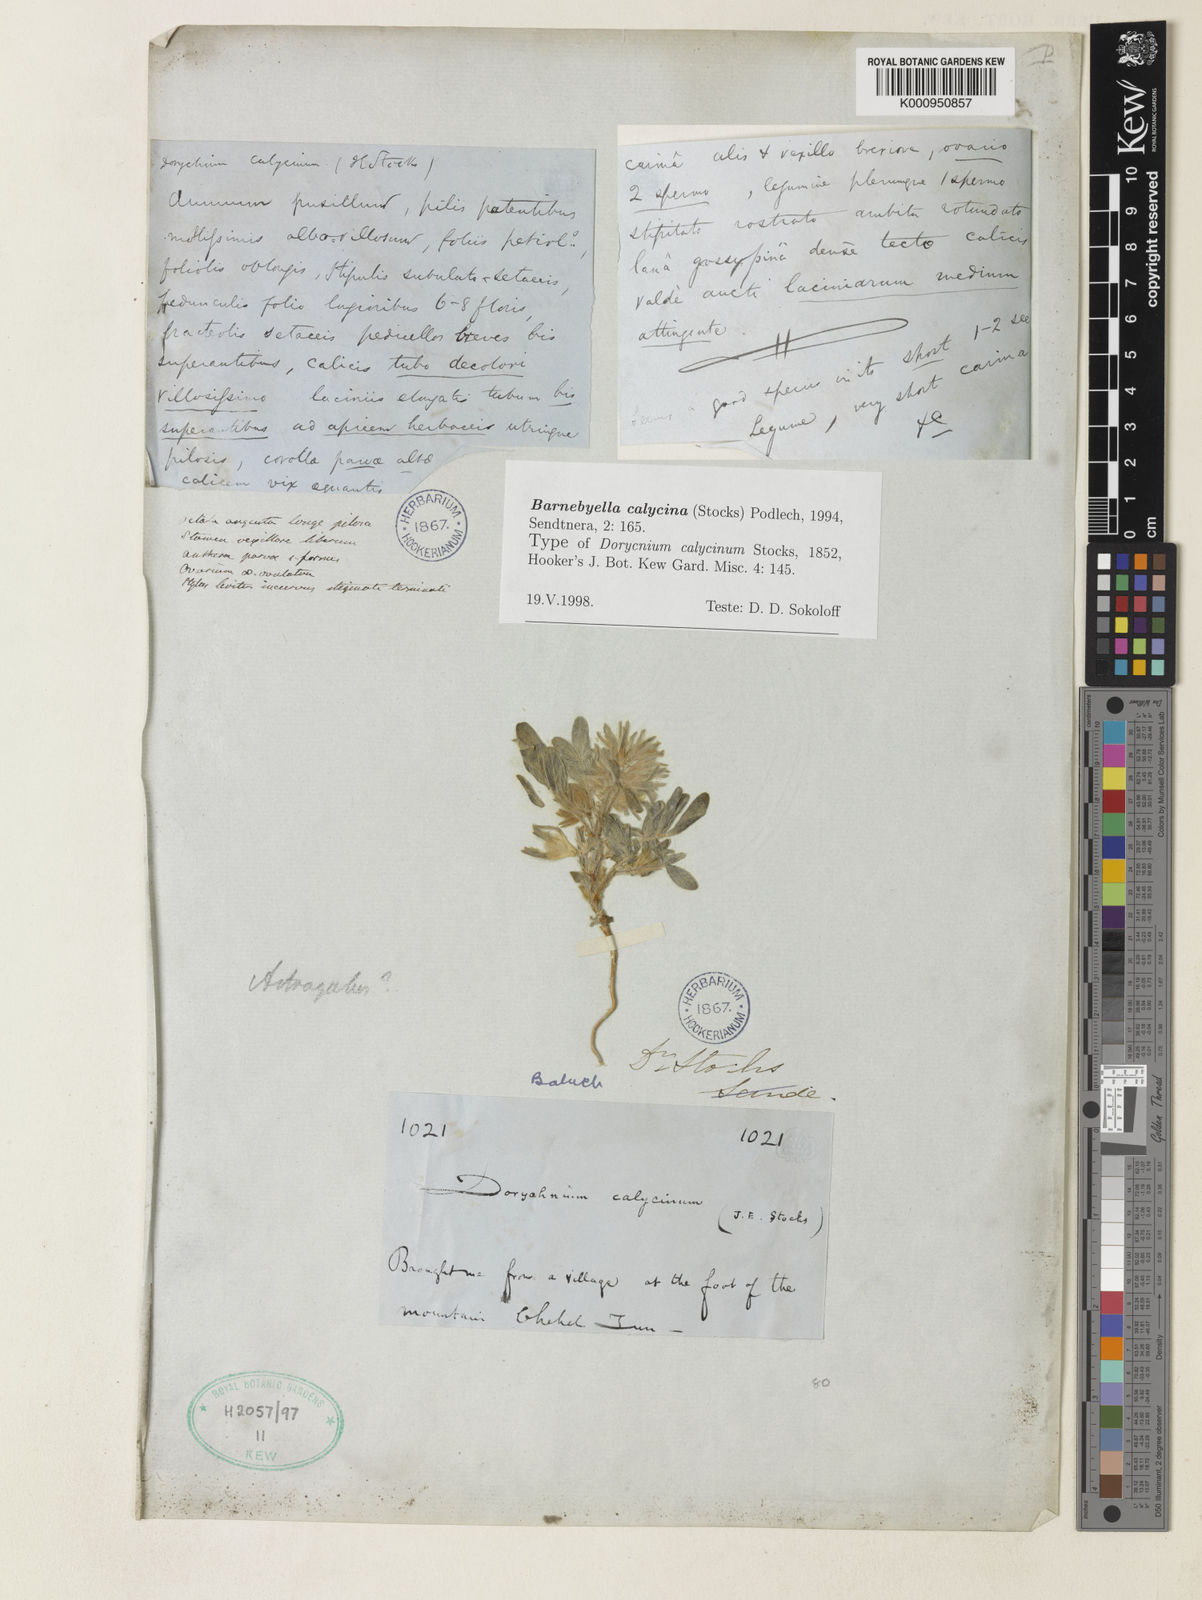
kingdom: Plantae
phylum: Tracheophyta
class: Magnoliopsida
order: Fabales
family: Fabaceae
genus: Astragalus
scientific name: Astragalus migpo
